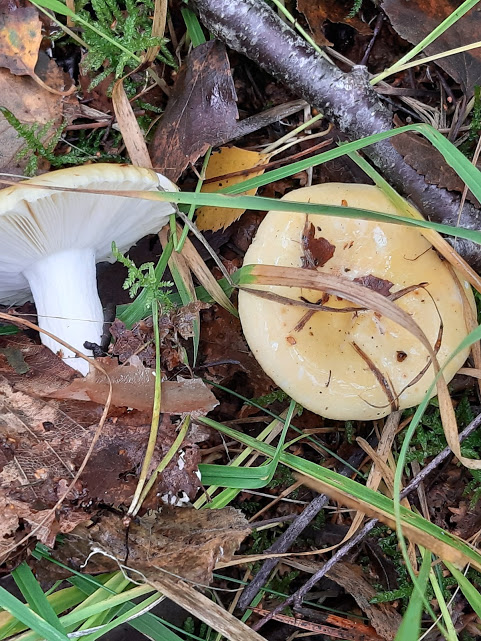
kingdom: Fungi
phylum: Basidiomycota
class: Agaricomycetes
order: Russulales
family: Russulaceae
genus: Russula
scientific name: Russula claroflava
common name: birke-skørhat
